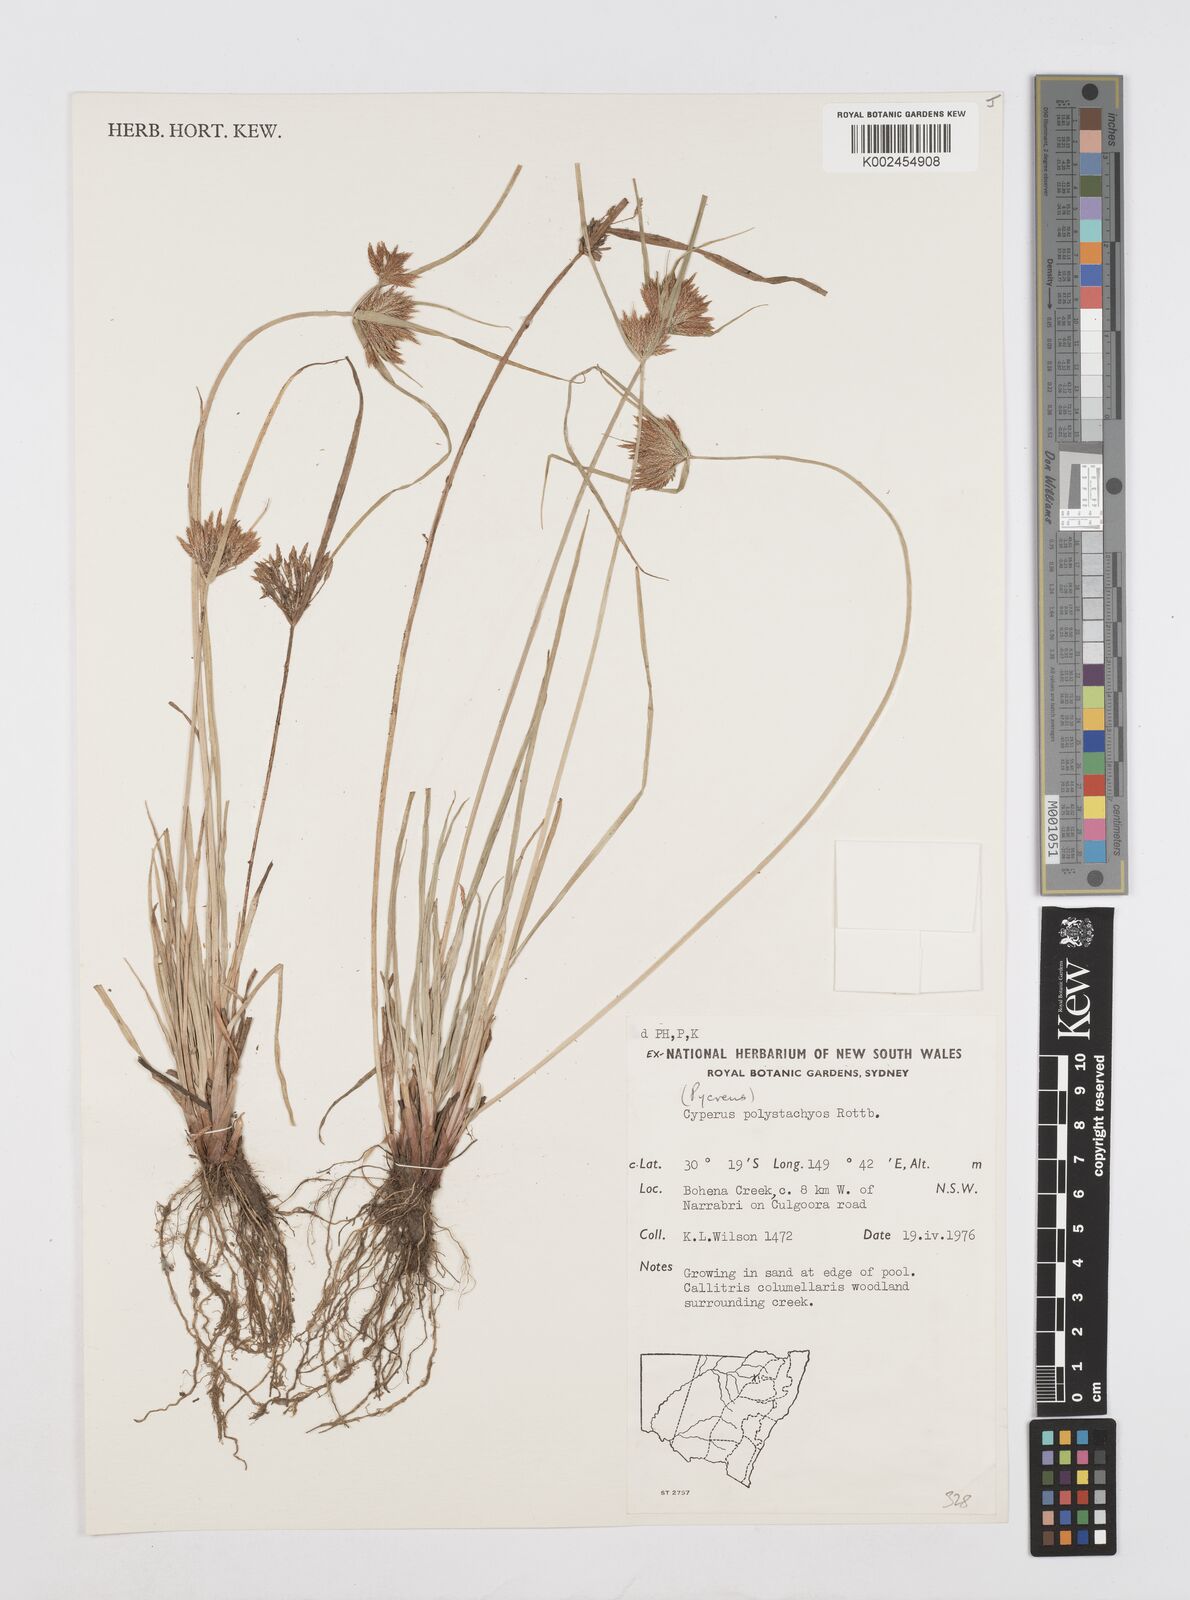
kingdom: Plantae
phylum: Tracheophyta
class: Liliopsida
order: Poales
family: Cyperaceae
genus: Cyperus
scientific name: Cyperus polystachyos
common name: Bunchy flat sedge
